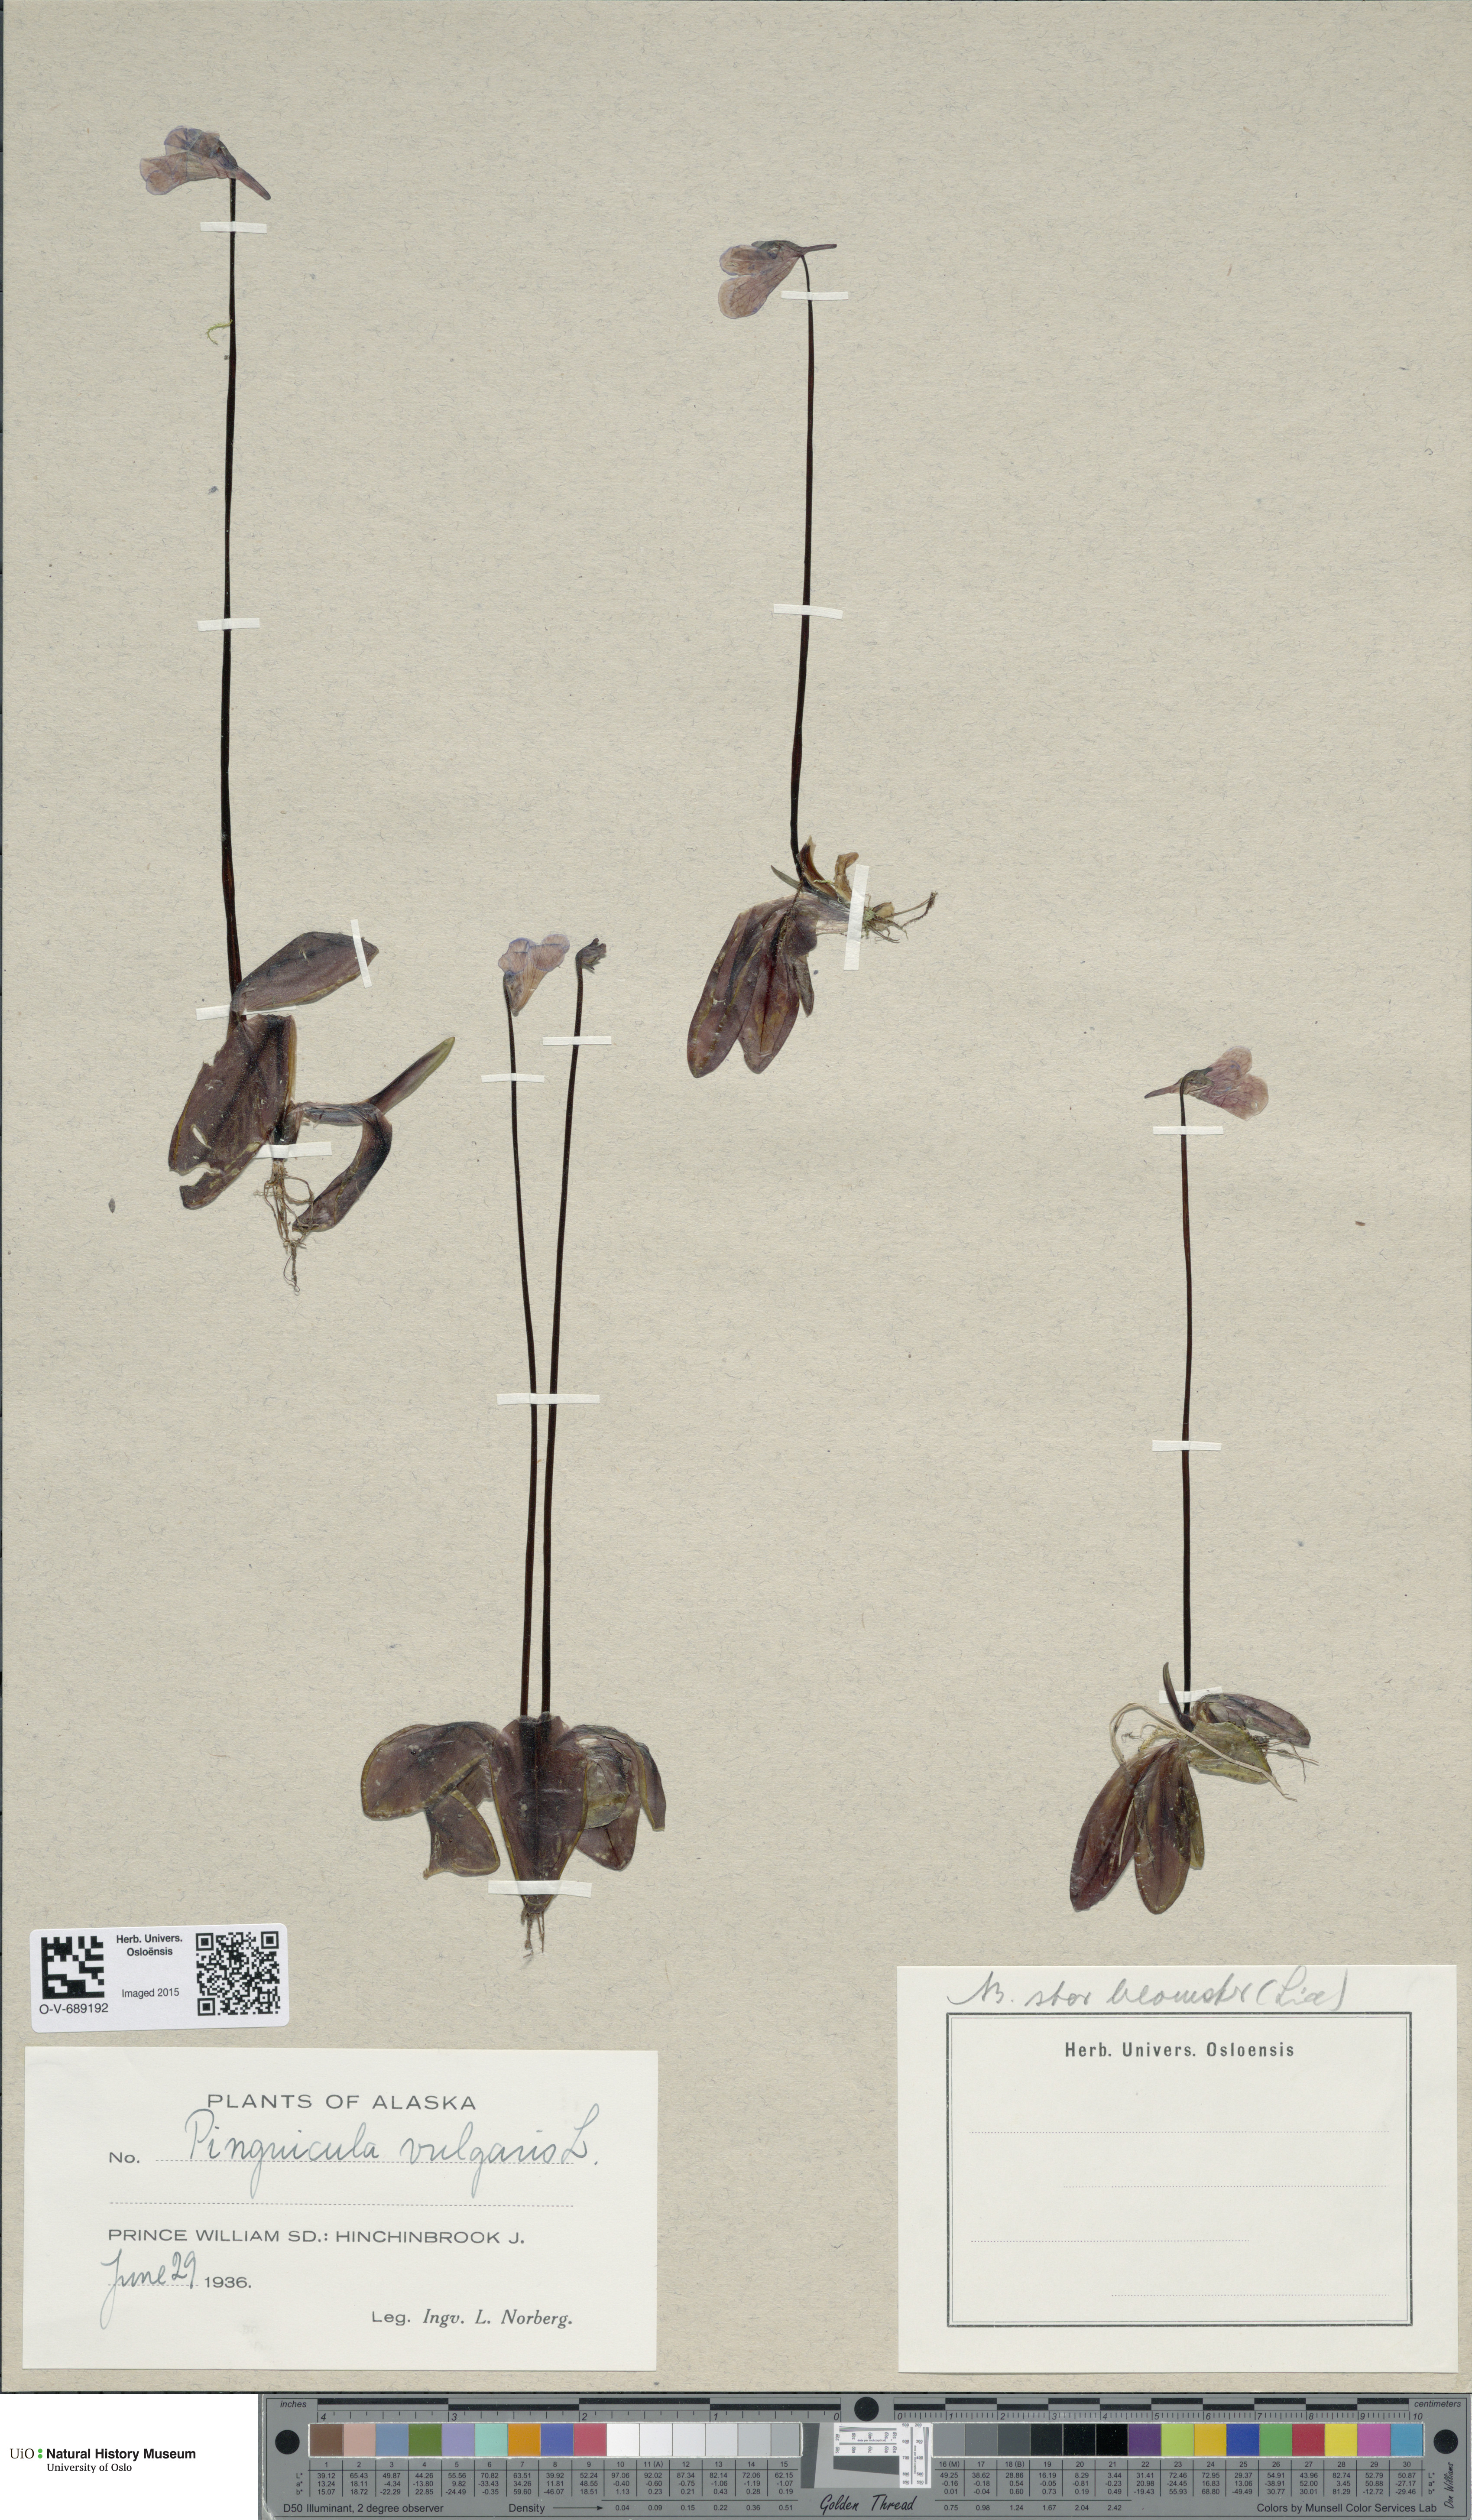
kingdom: Plantae
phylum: Tracheophyta
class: Magnoliopsida
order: Lamiales
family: Lentibulariaceae
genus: Pinguicula
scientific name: Pinguicula vulgaris
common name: Common butterwort
